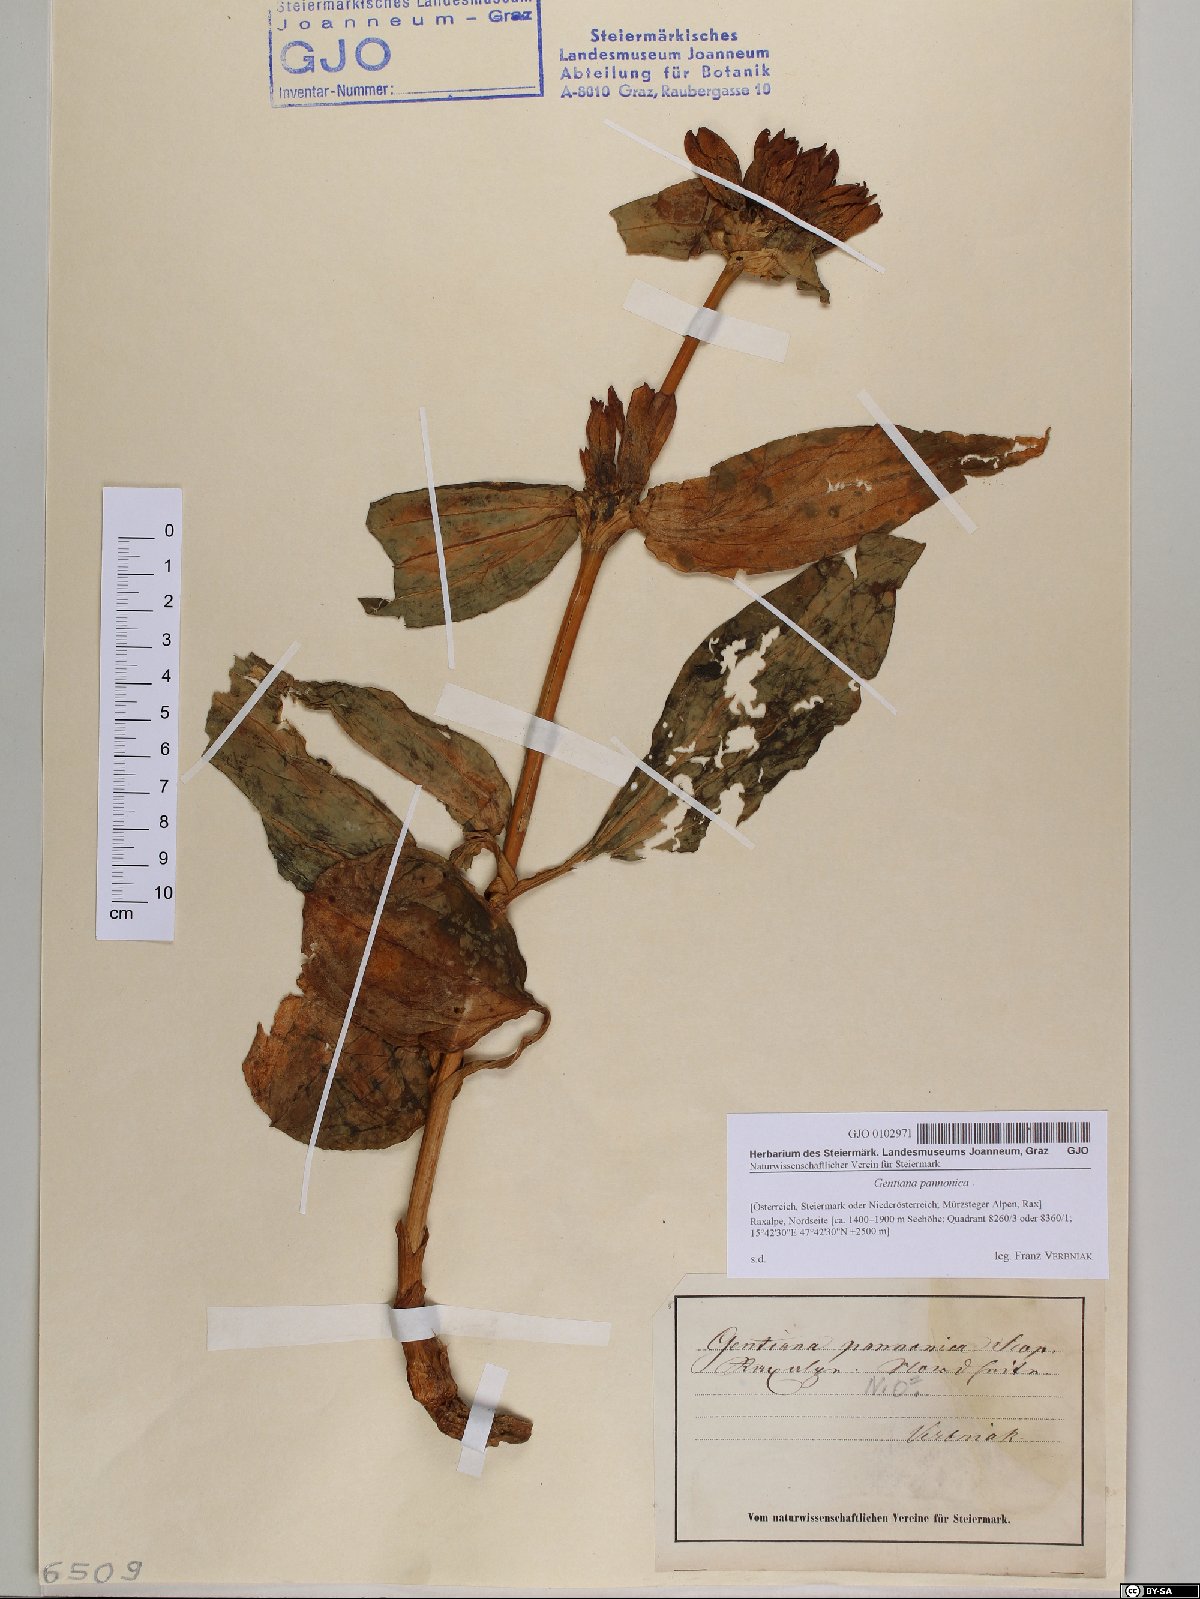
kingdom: Plantae
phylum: Tracheophyta
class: Magnoliopsida
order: Gentianales
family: Gentianaceae
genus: Gentiana
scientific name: Gentiana pannonica
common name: Hungarian gentian
